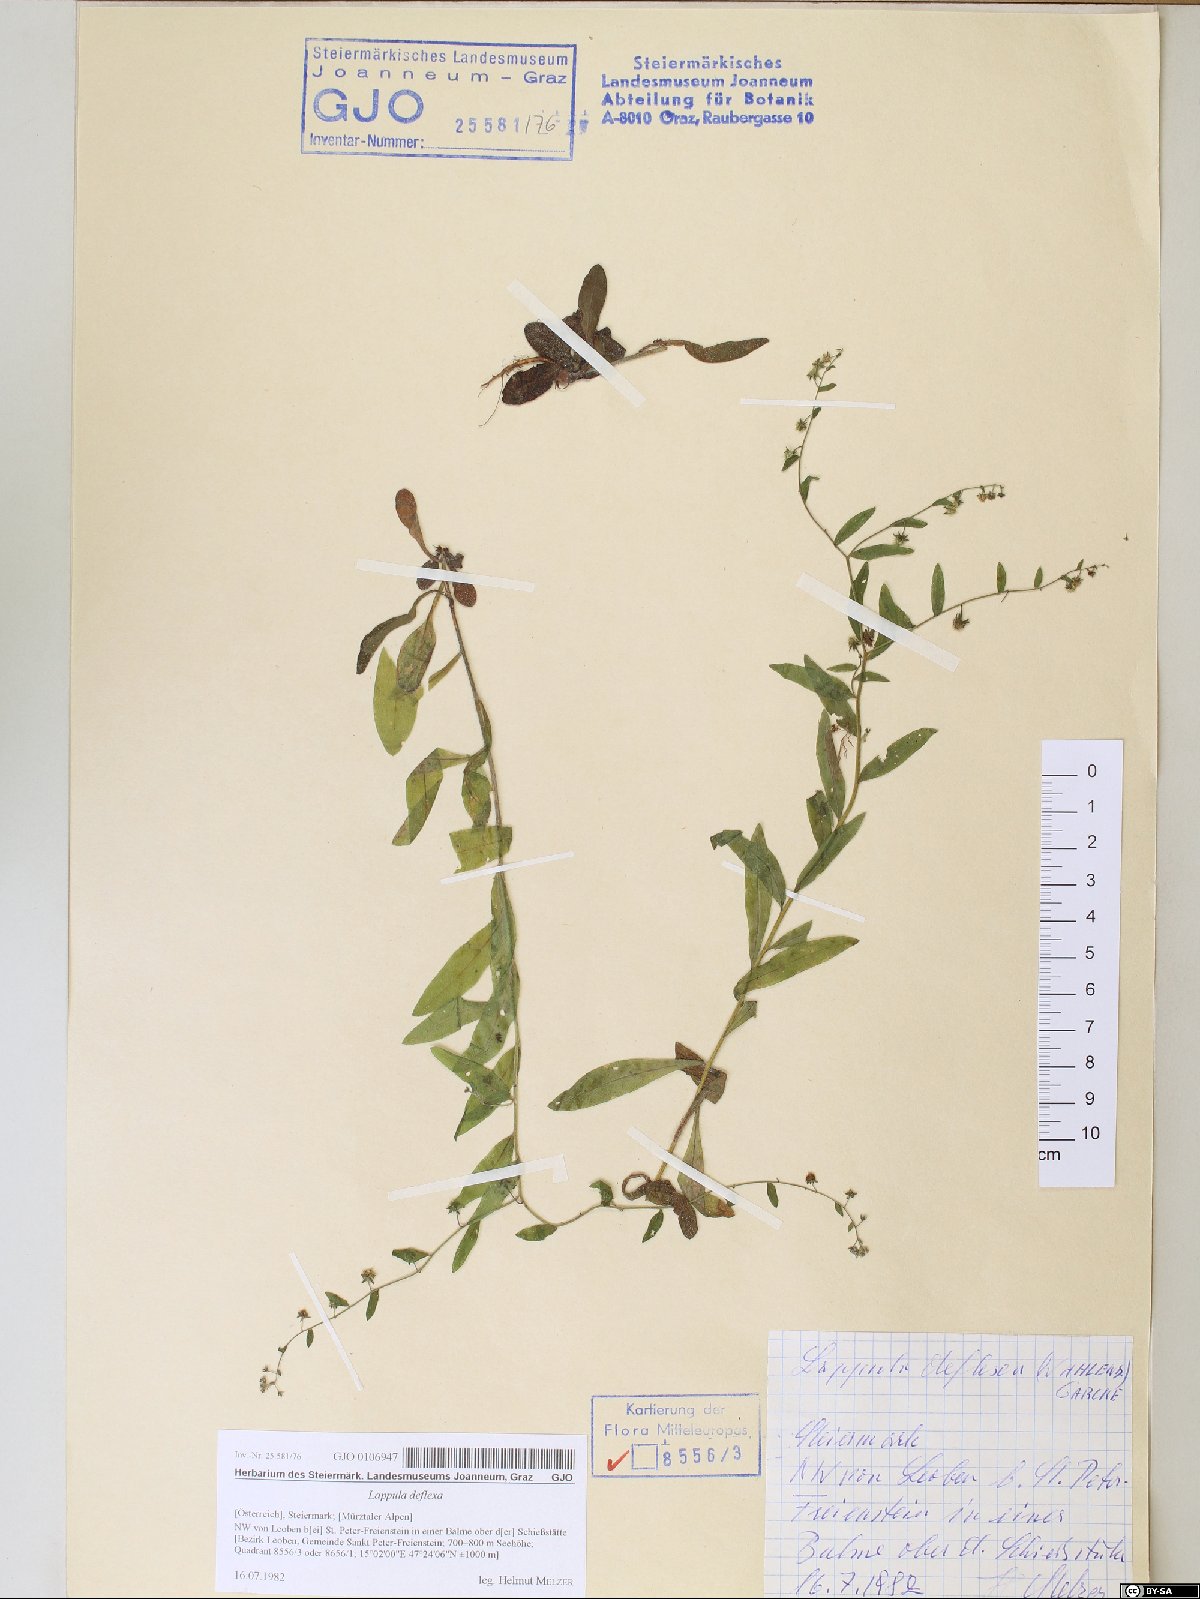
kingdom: Plantae
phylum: Tracheophyta
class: Magnoliopsida
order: Boraginales
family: Boraginaceae
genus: Hackelia
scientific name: Hackelia deflexa
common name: Nodding stickseed
